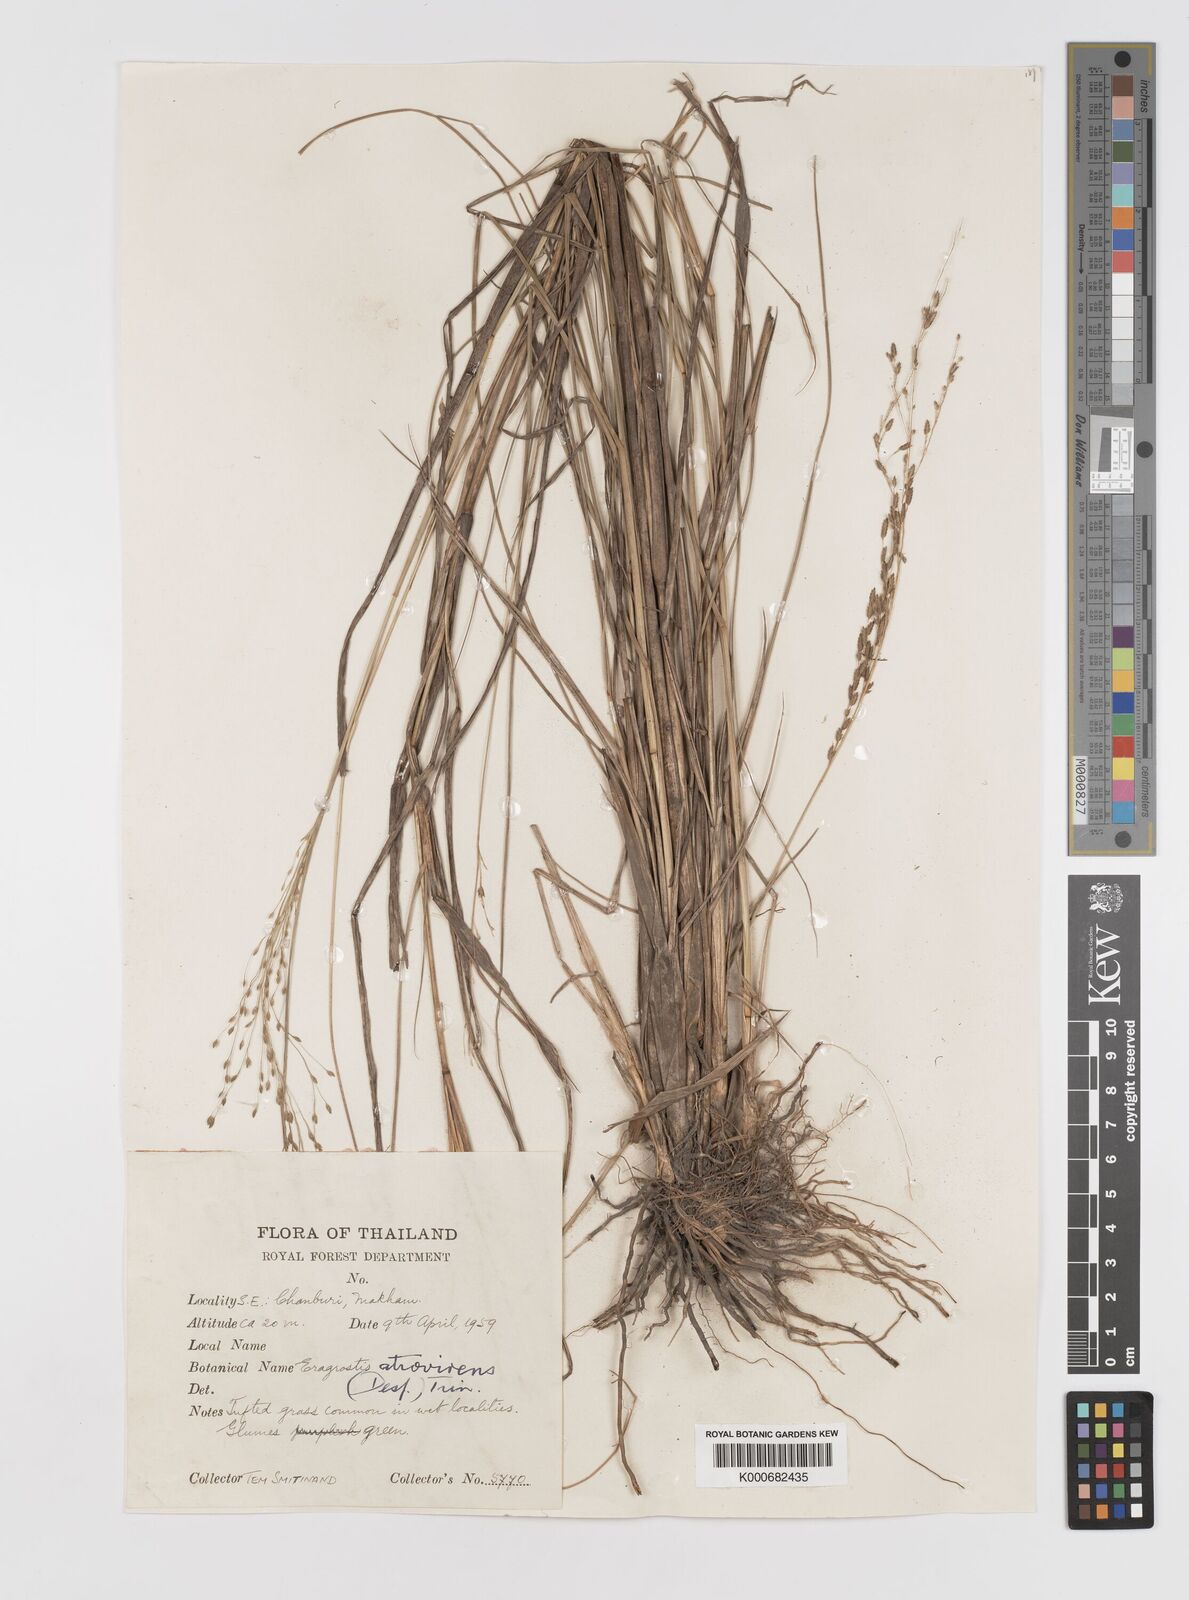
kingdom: Plantae
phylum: Tracheophyta
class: Liliopsida
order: Poales
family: Poaceae
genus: Eragrostis
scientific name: Eragrostis
